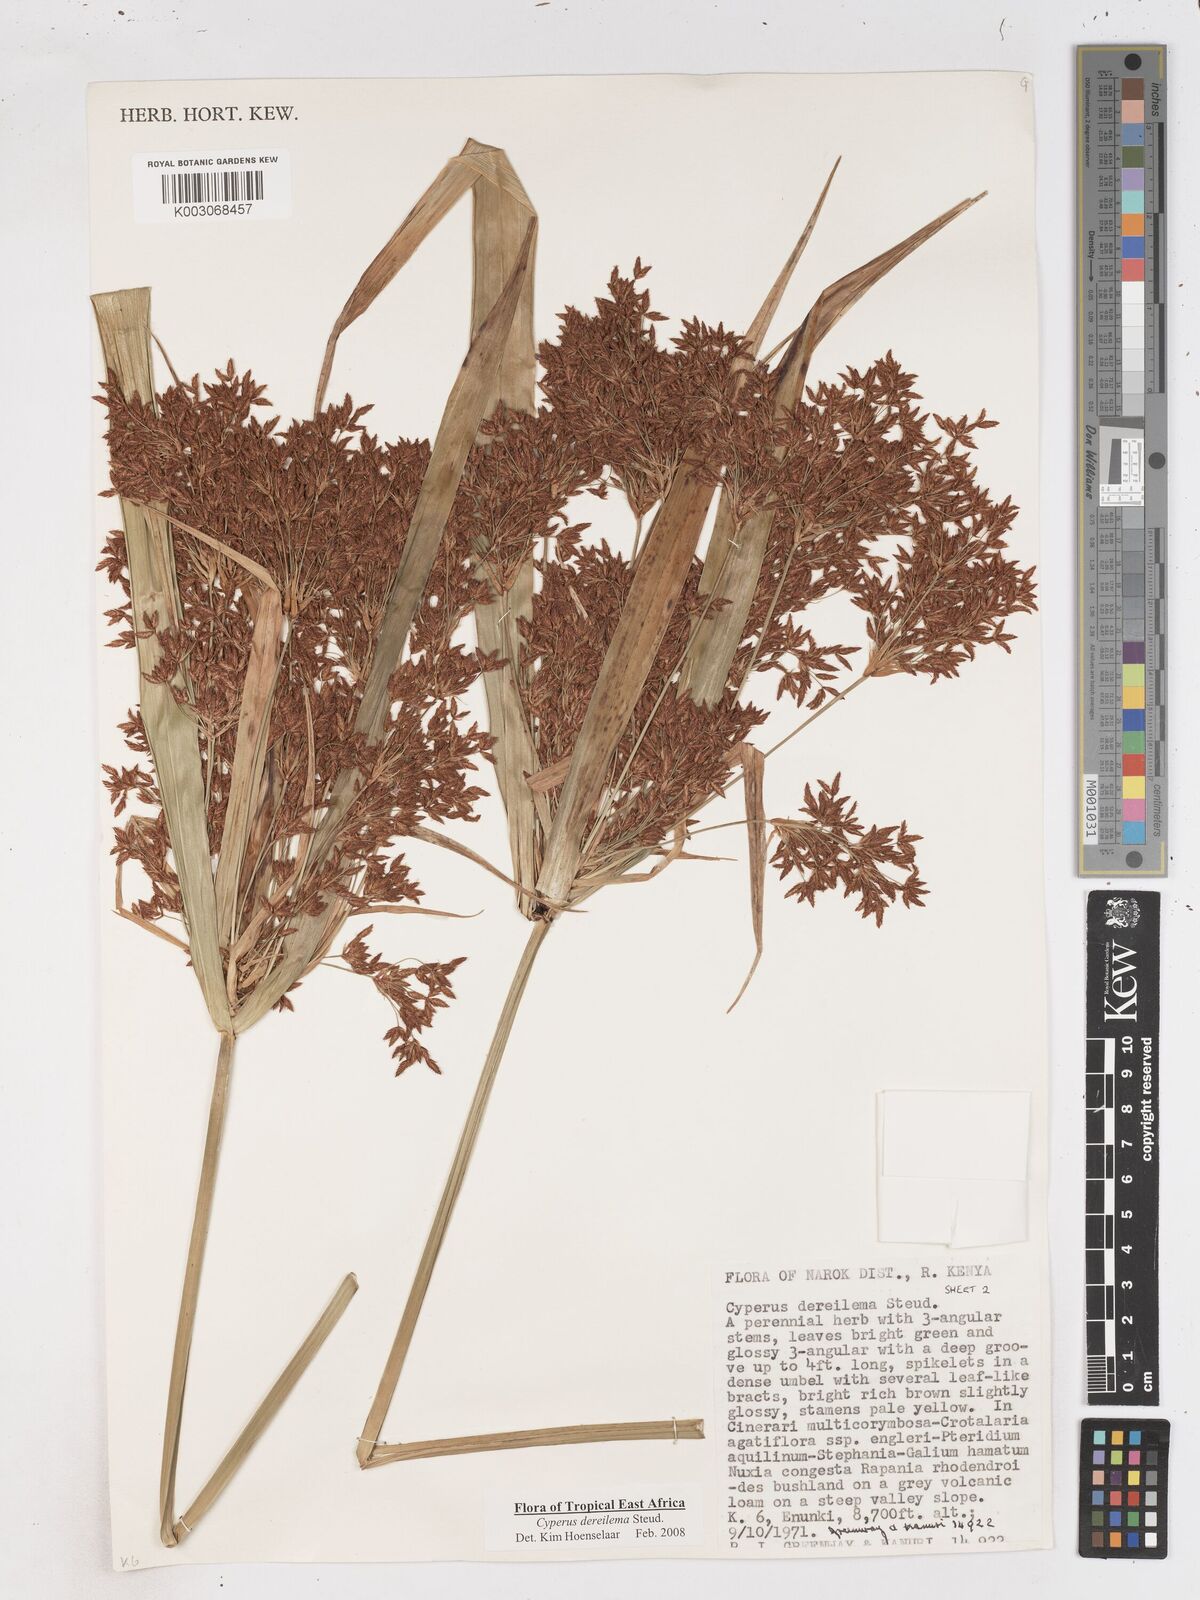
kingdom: Plantae
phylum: Tracheophyta
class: Liliopsida
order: Poales
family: Cyperaceae
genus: Cyperus
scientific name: Cyperus derreilema
